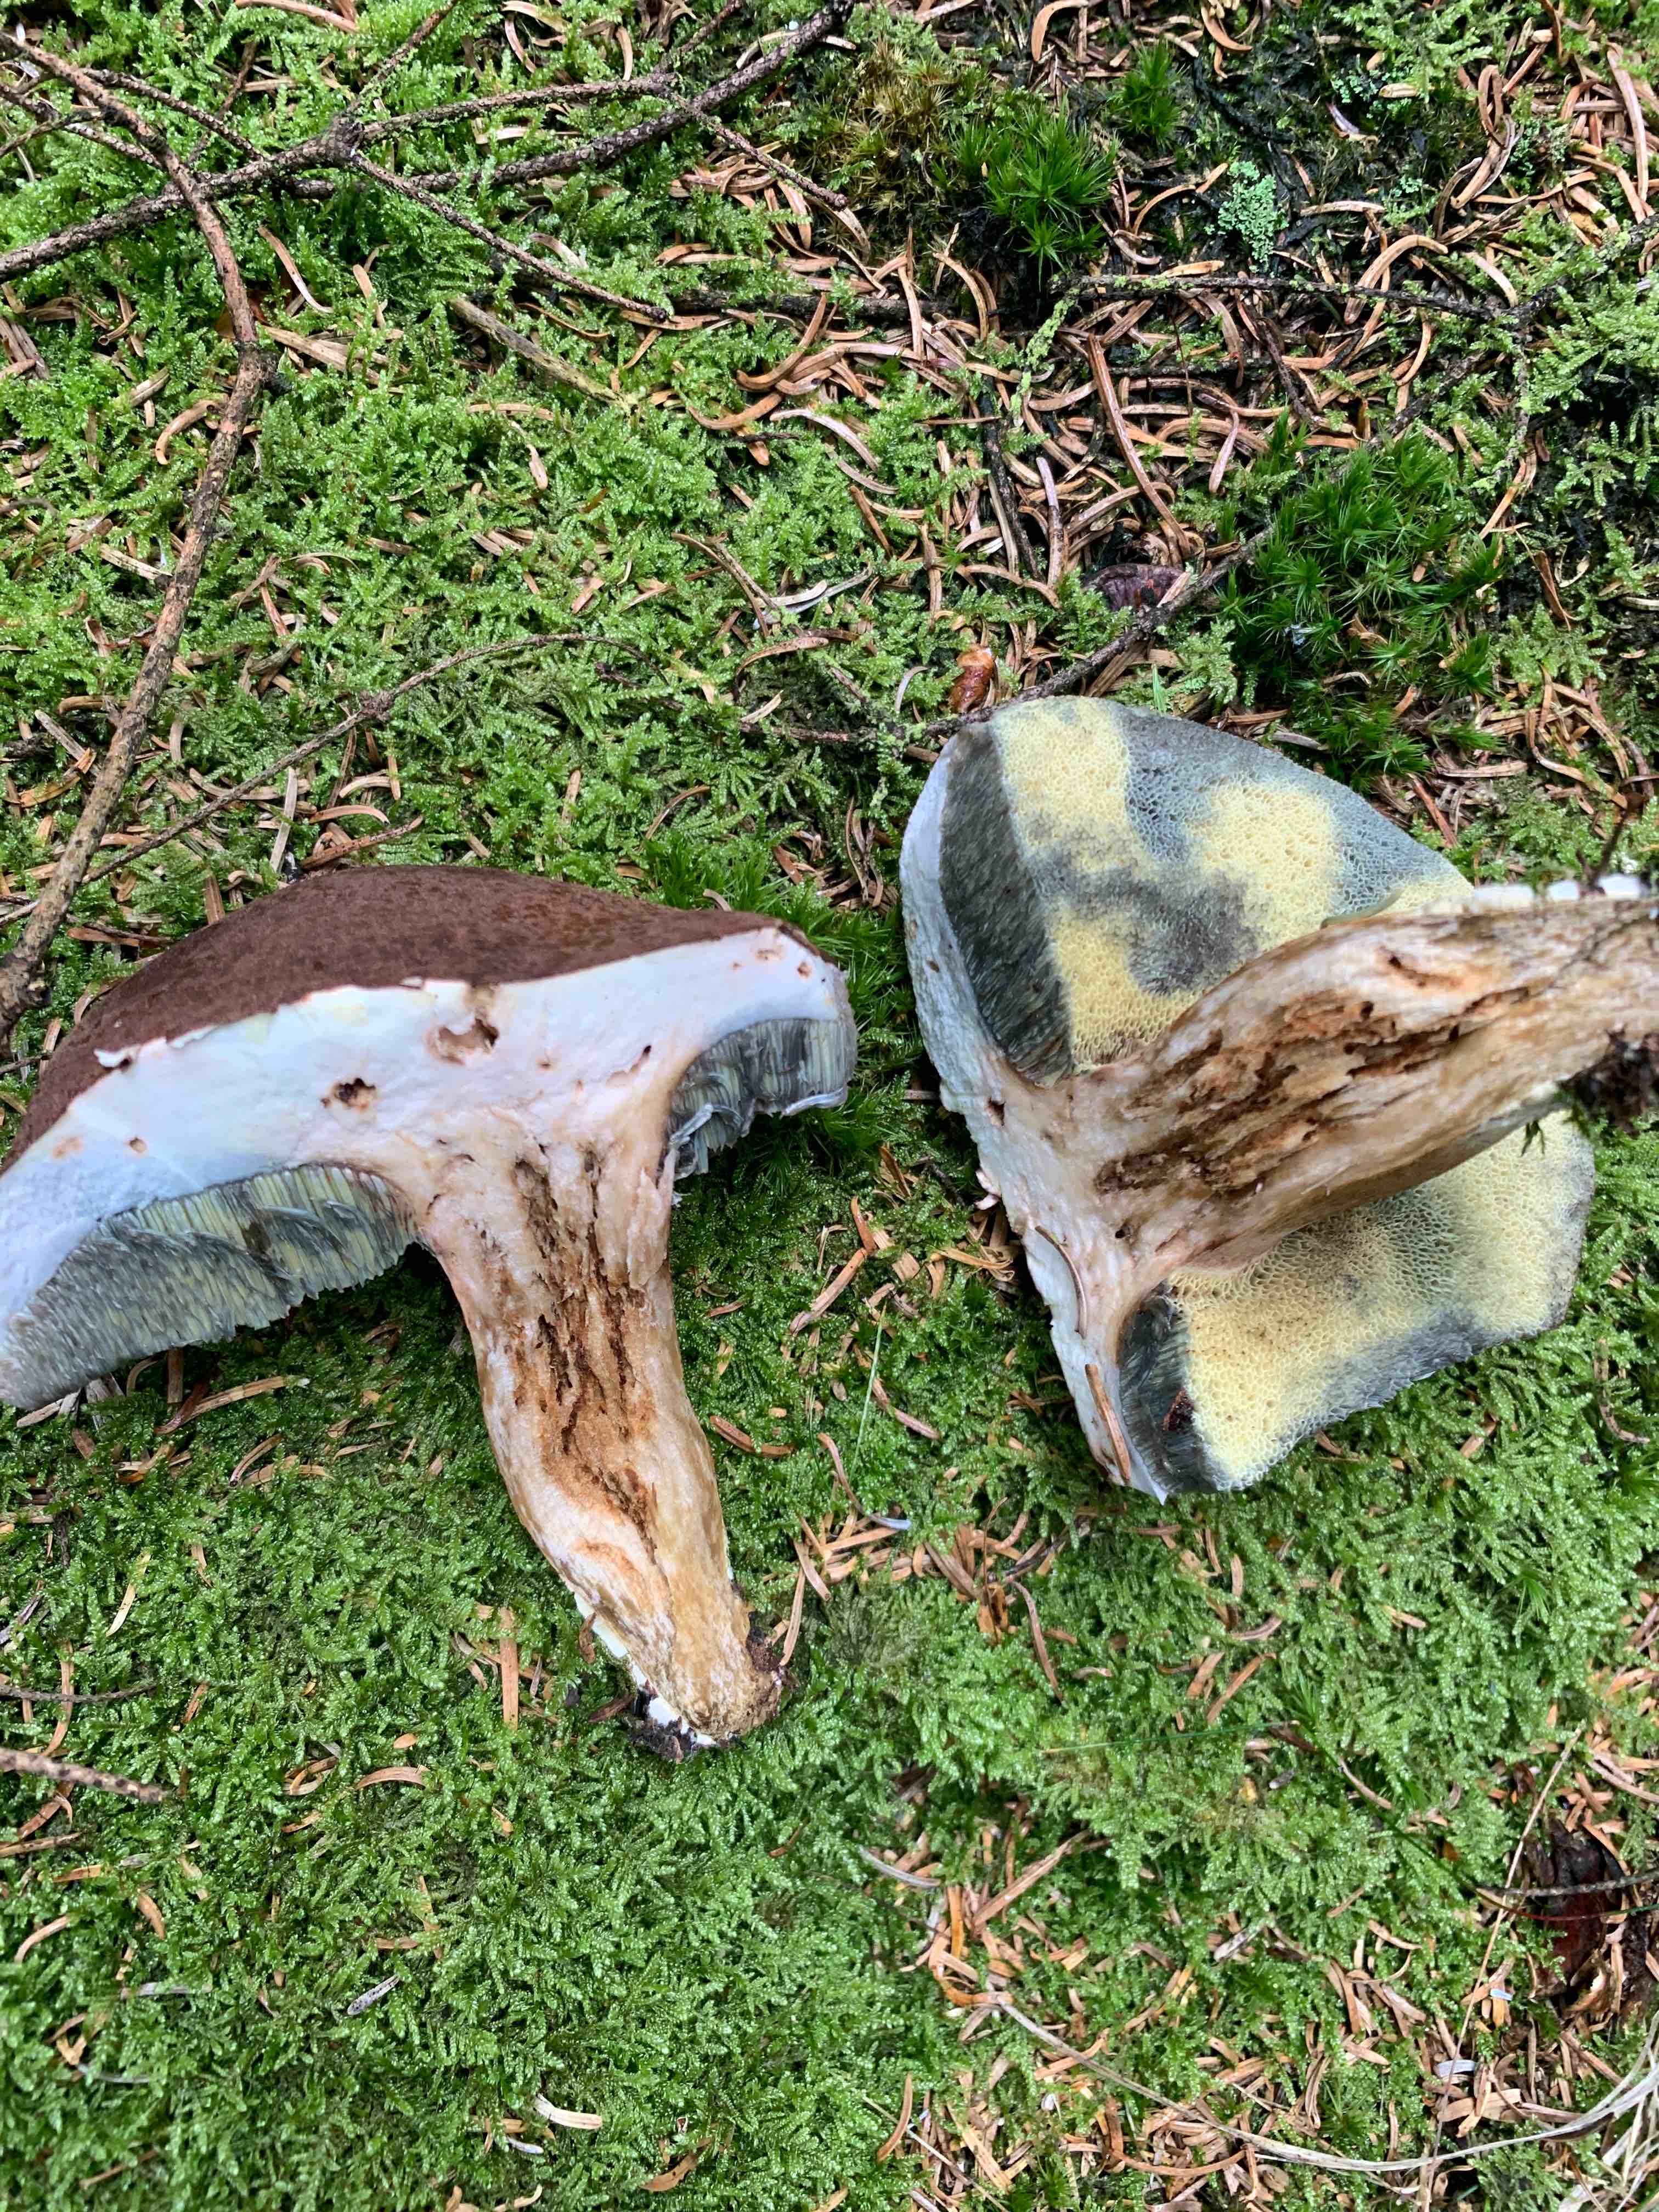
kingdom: Fungi
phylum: Basidiomycota
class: Agaricomycetes
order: Boletales
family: Boletaceae
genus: Imleria
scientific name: Imleria badia
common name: brunstokket rørhat
